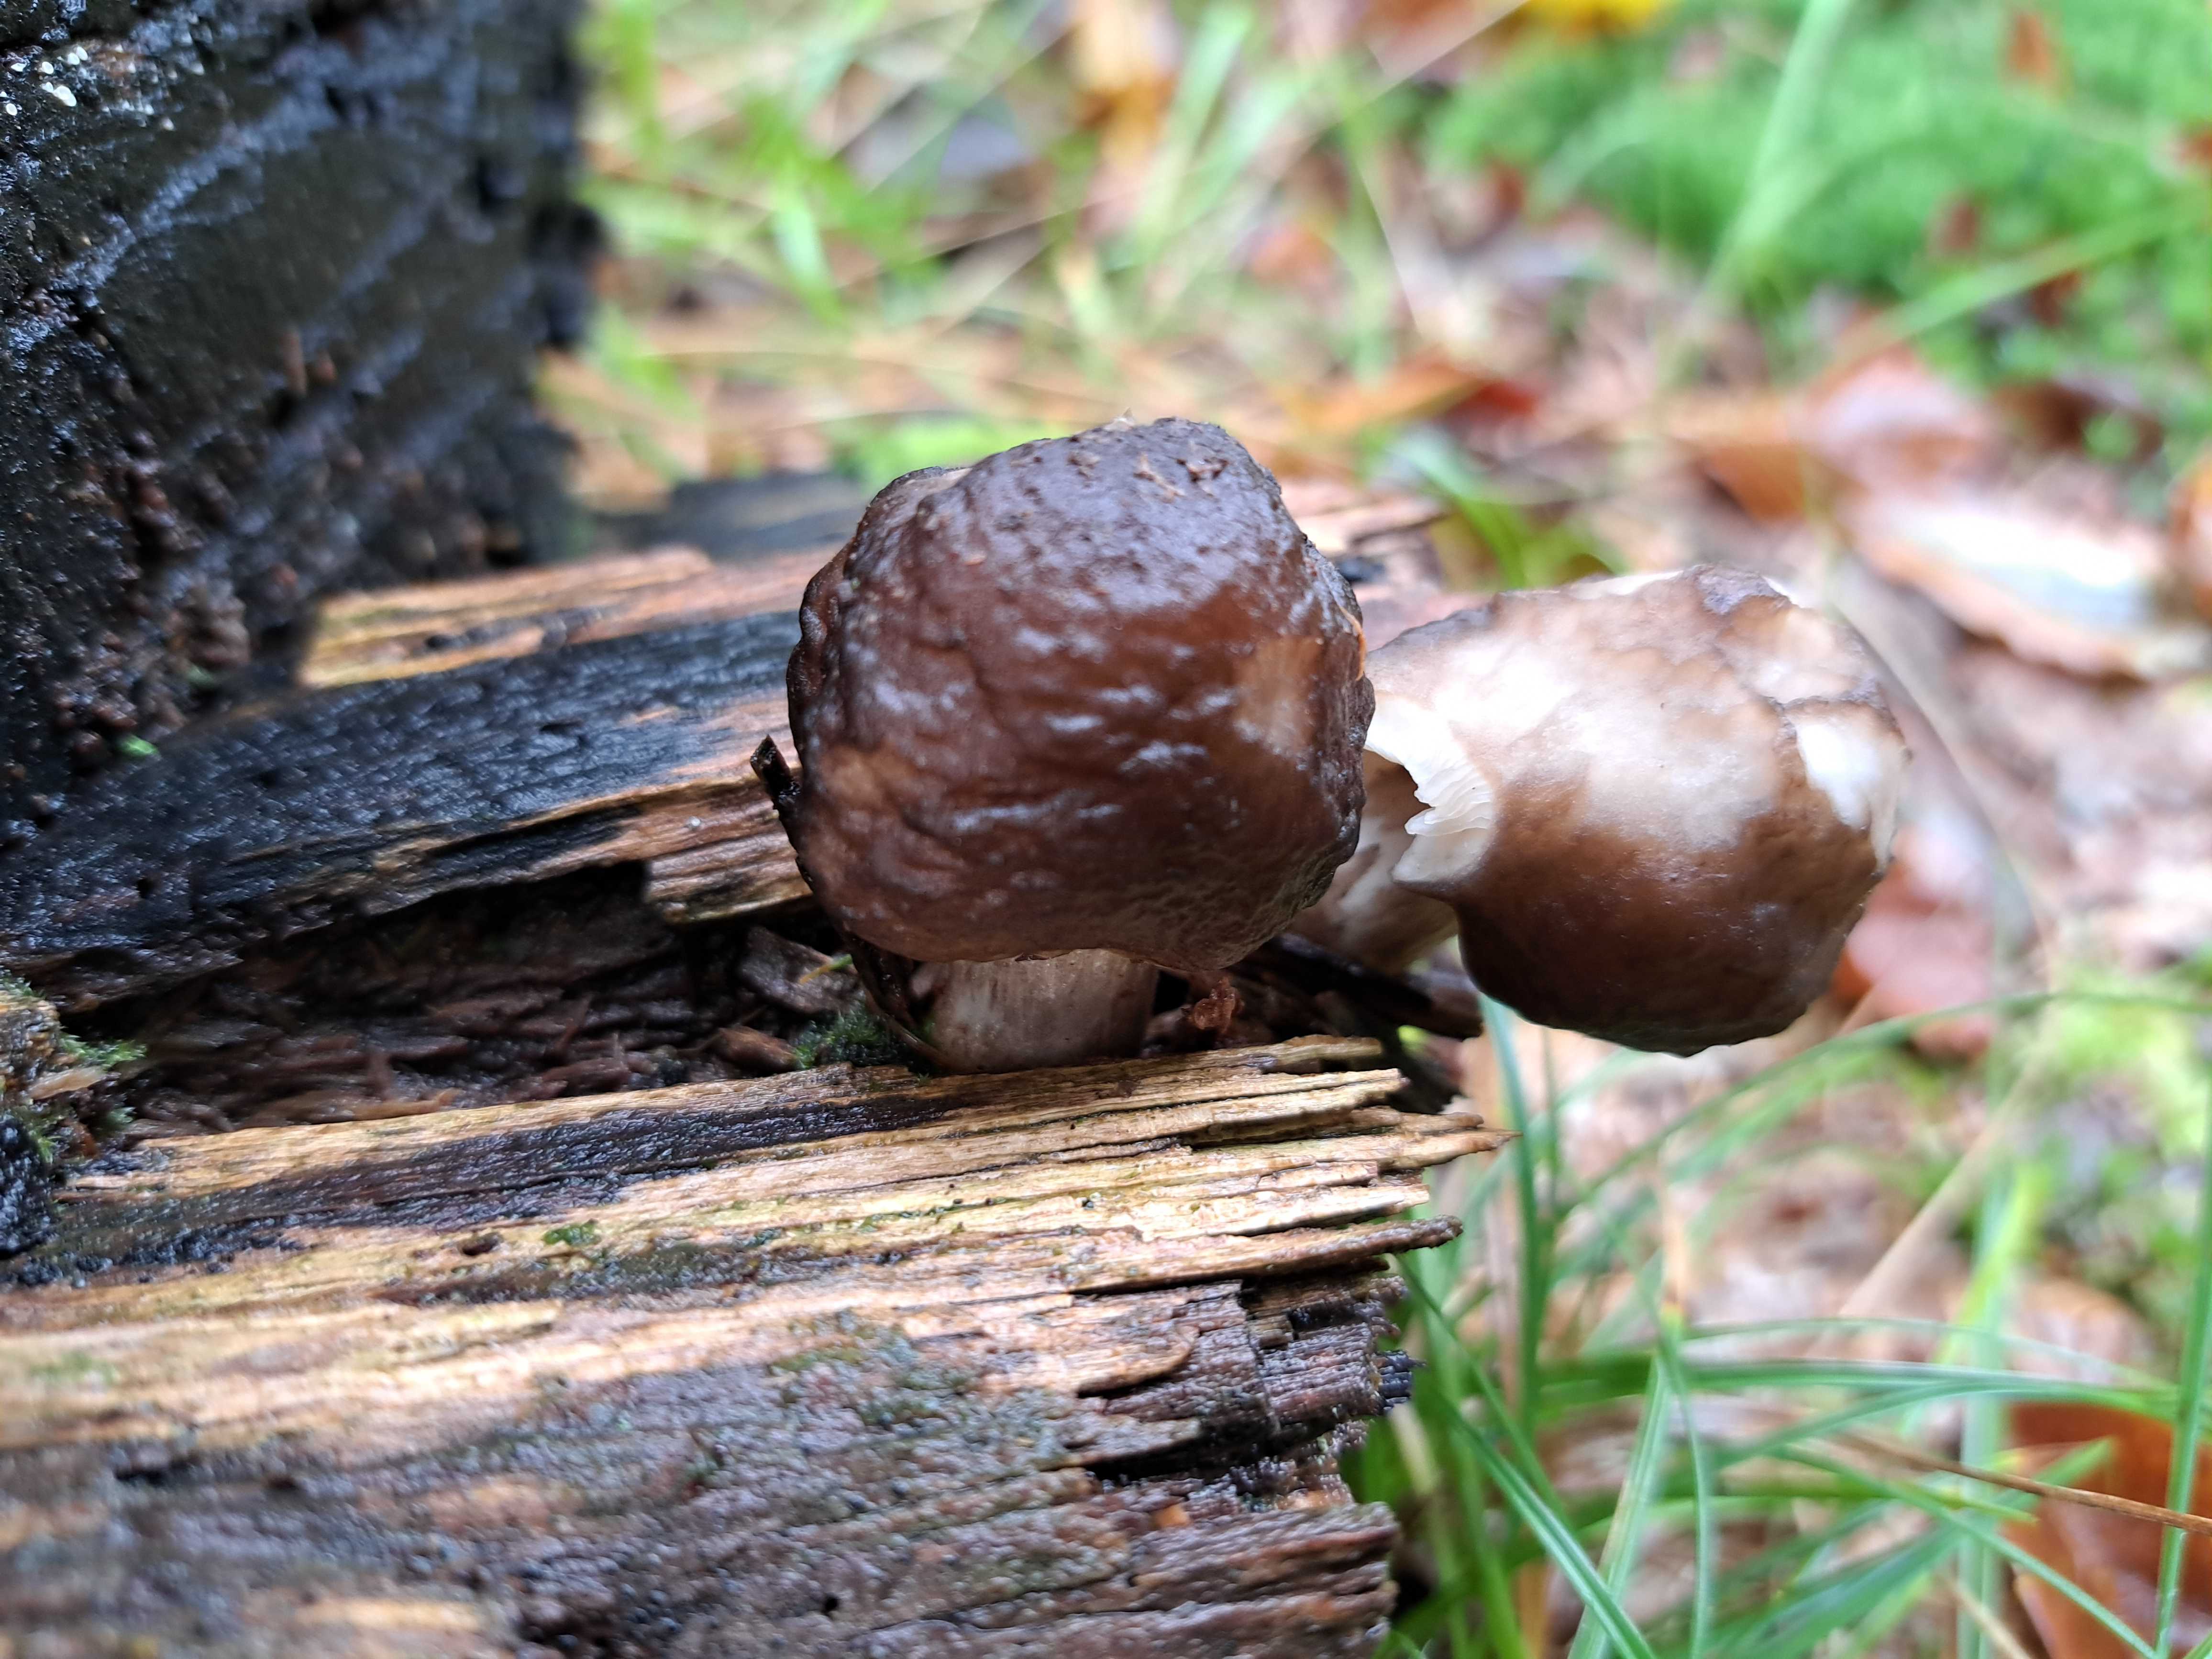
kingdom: Fungi
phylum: Basidiomycota
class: Agaricomycetes
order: Agaricales
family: Pluteaceae
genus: Pluteus
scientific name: Pluteus cervinus
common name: sodfarvet skærmhat
